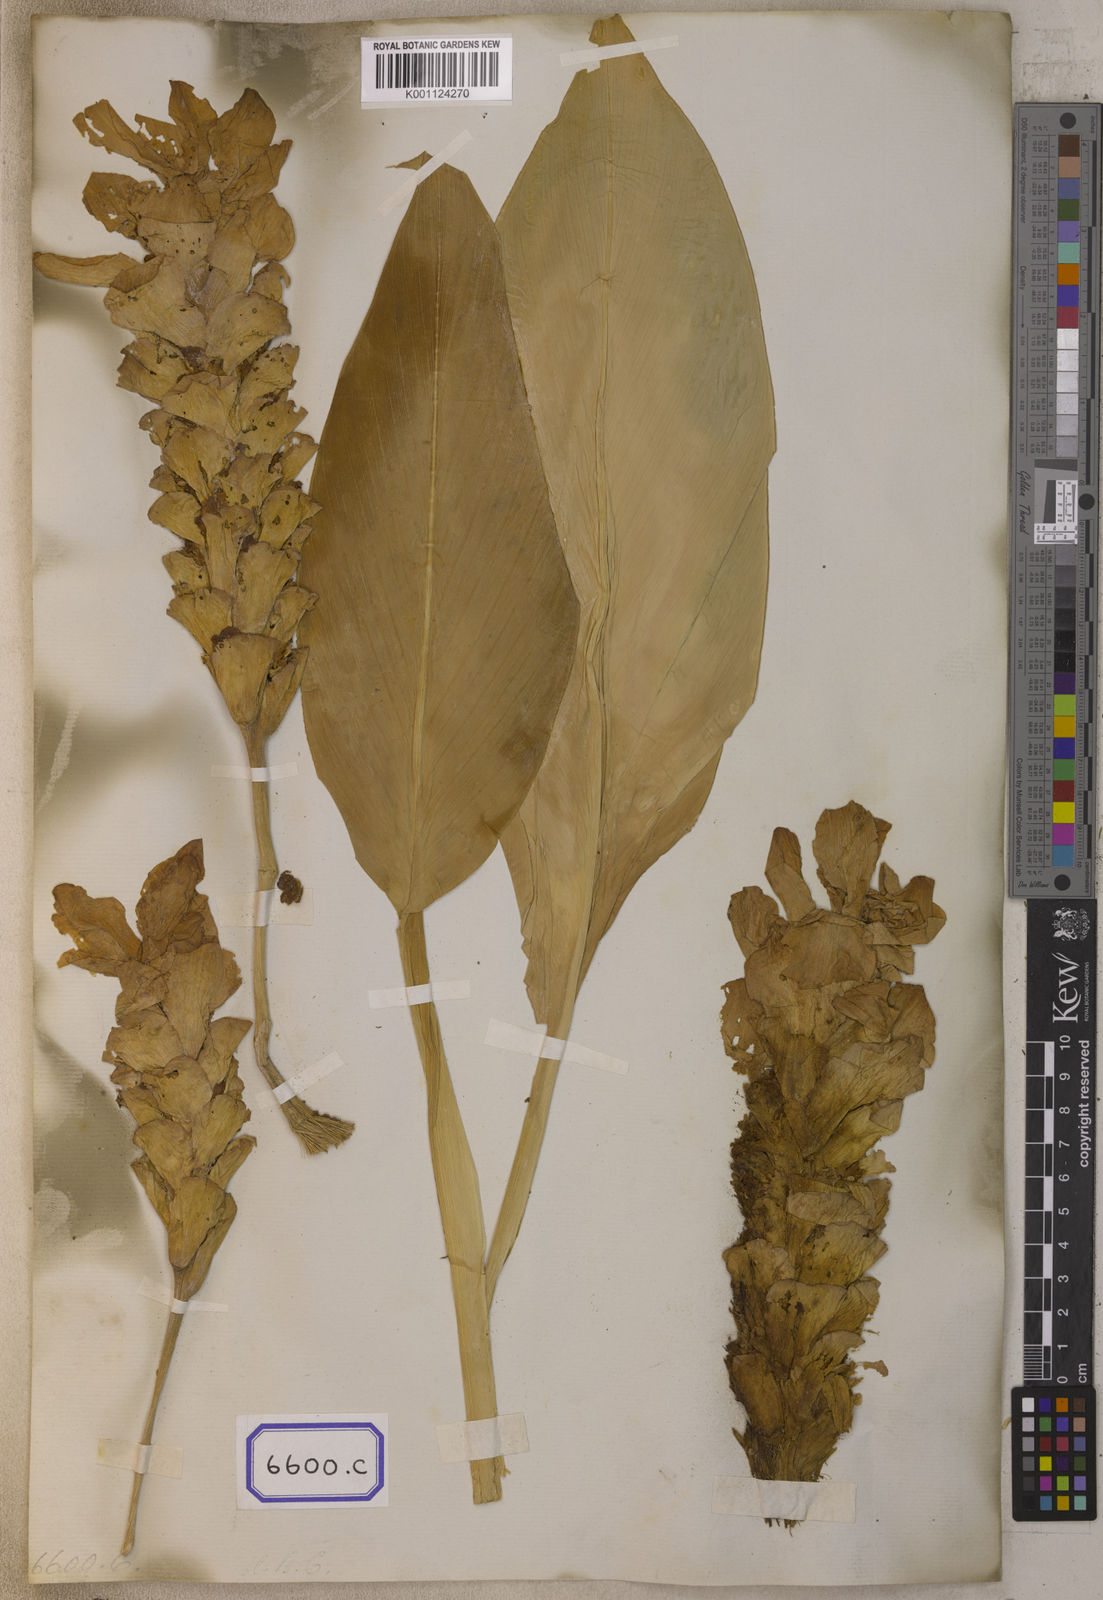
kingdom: Plantae
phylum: Tracheophyta
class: Liliopsida
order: Zingiberales
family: Zingiberaceae
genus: Curcuma
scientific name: Curcuma euchroma
